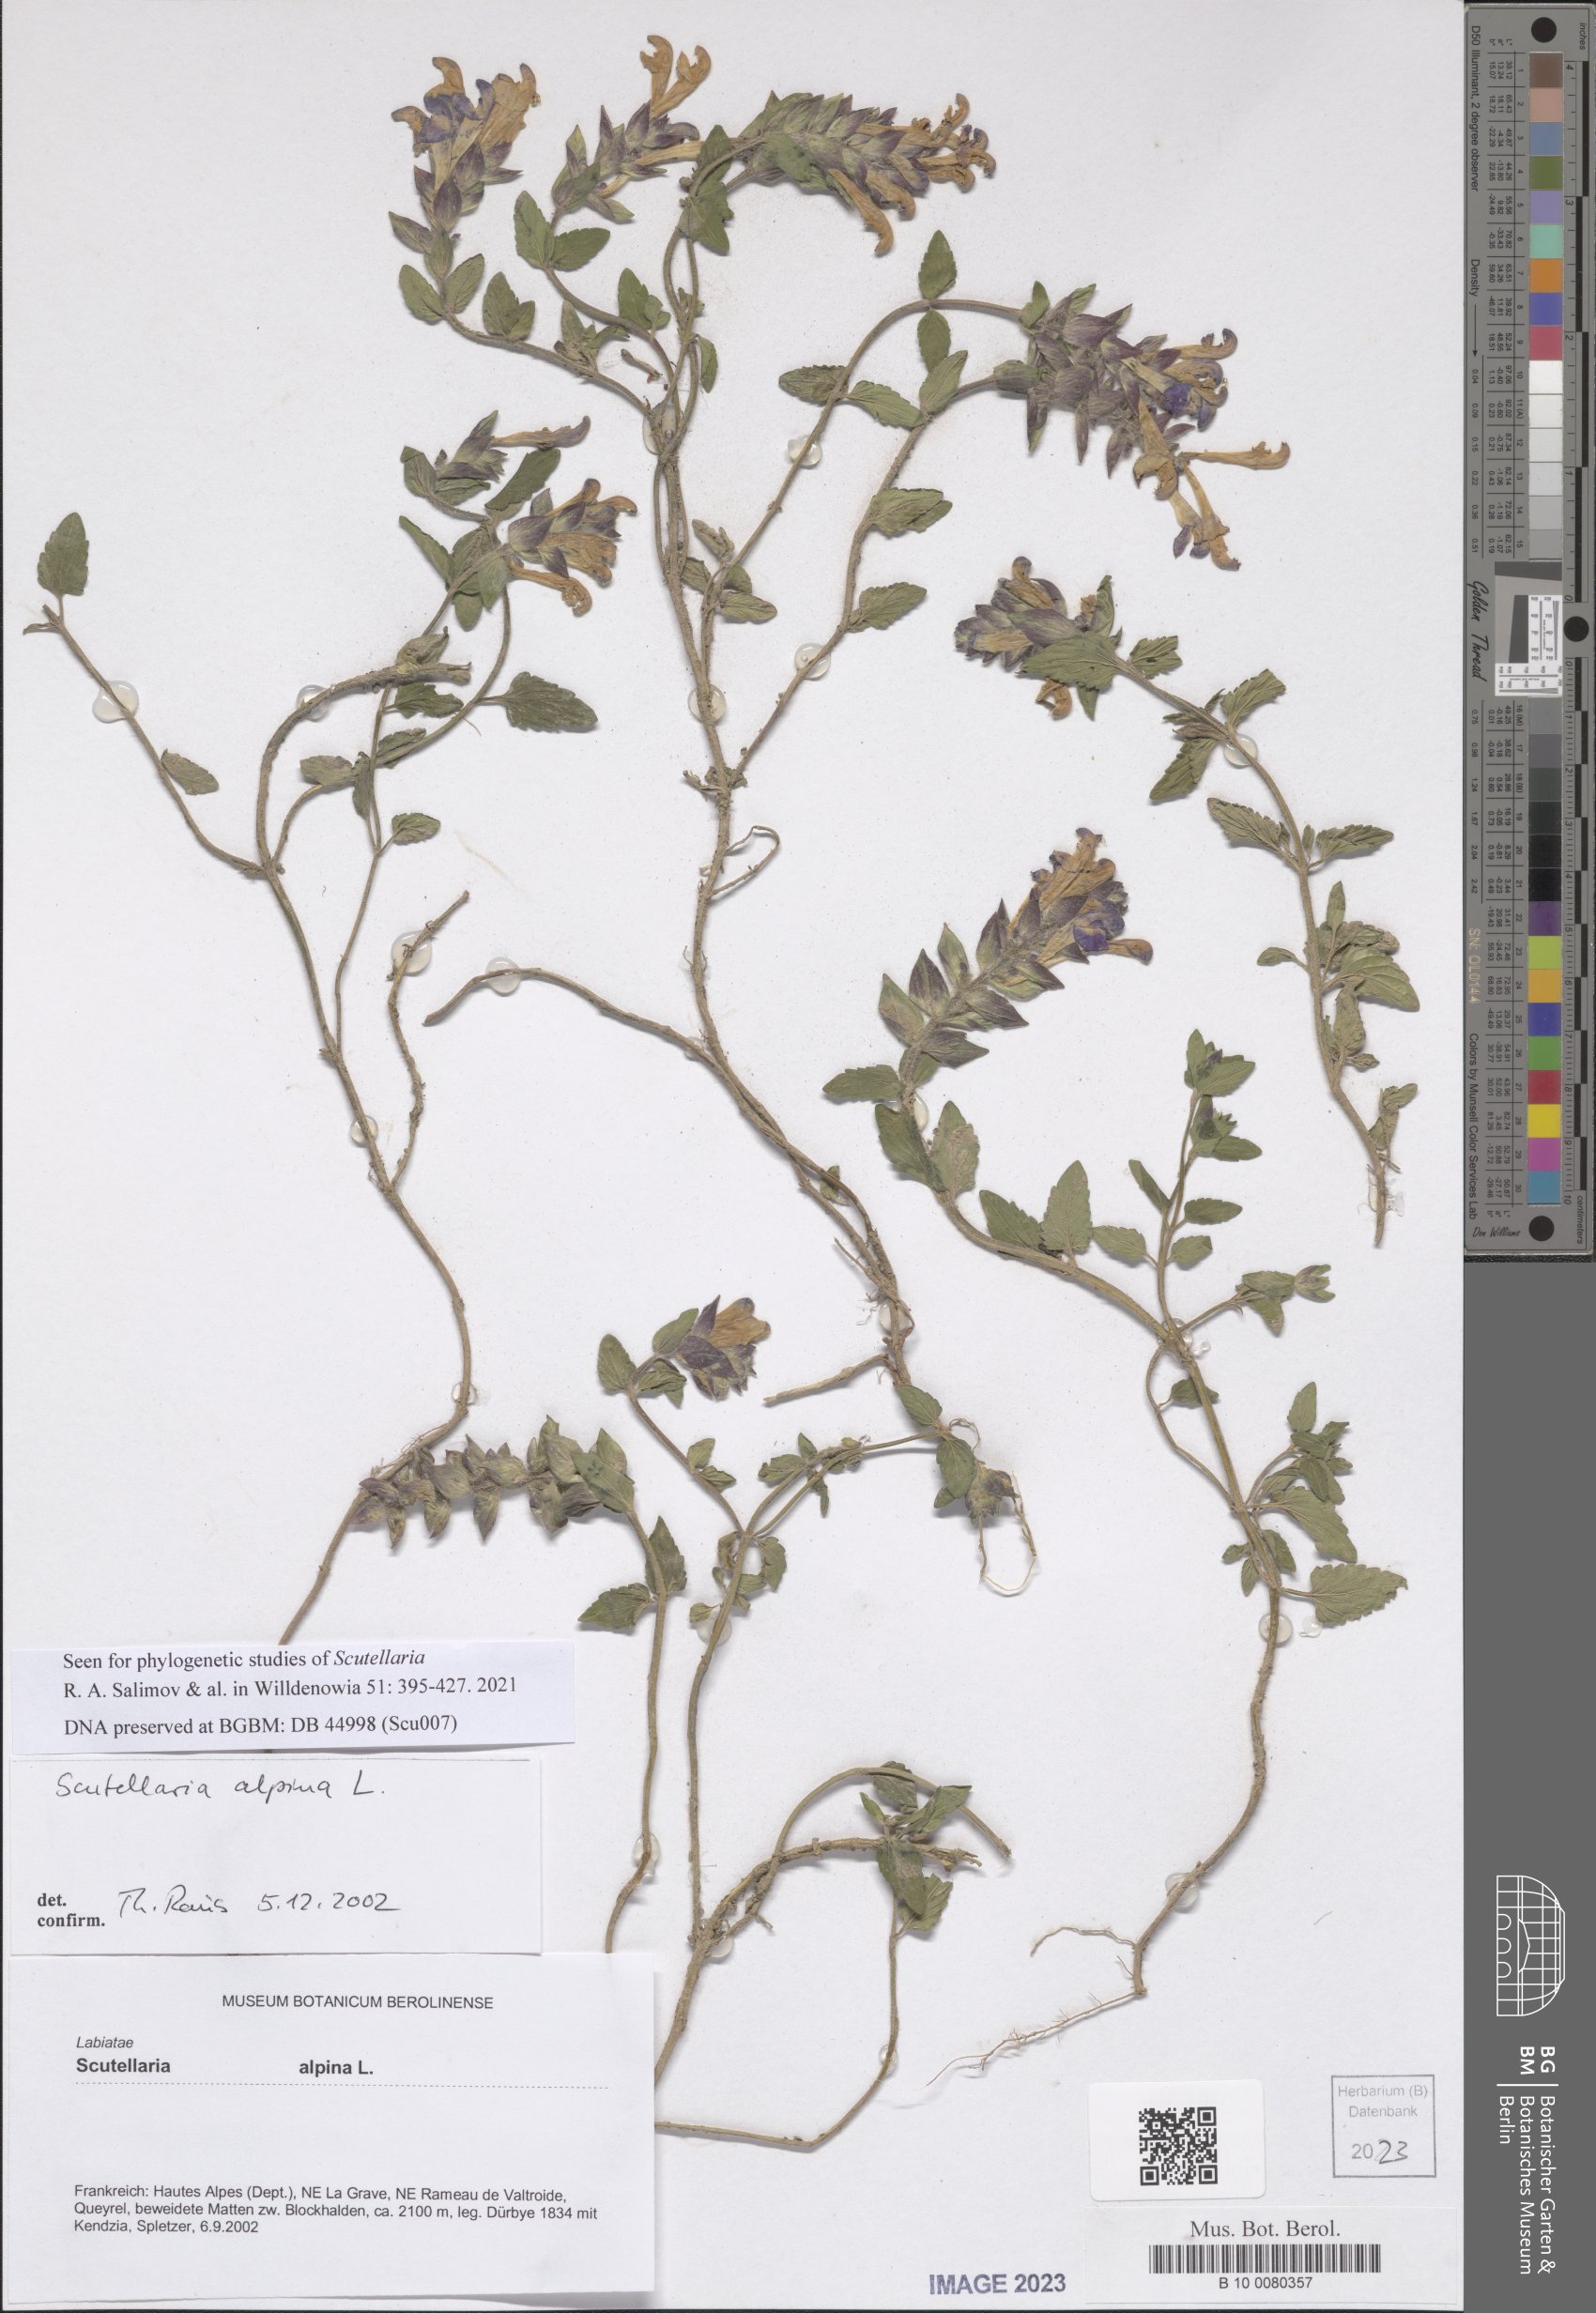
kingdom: Plantae
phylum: Tracheophyta
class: Magnoliopsida
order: Lamiales
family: Lamiaceae
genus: Scutellaria
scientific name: Scutellaria alpina
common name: Alpine scullcap
